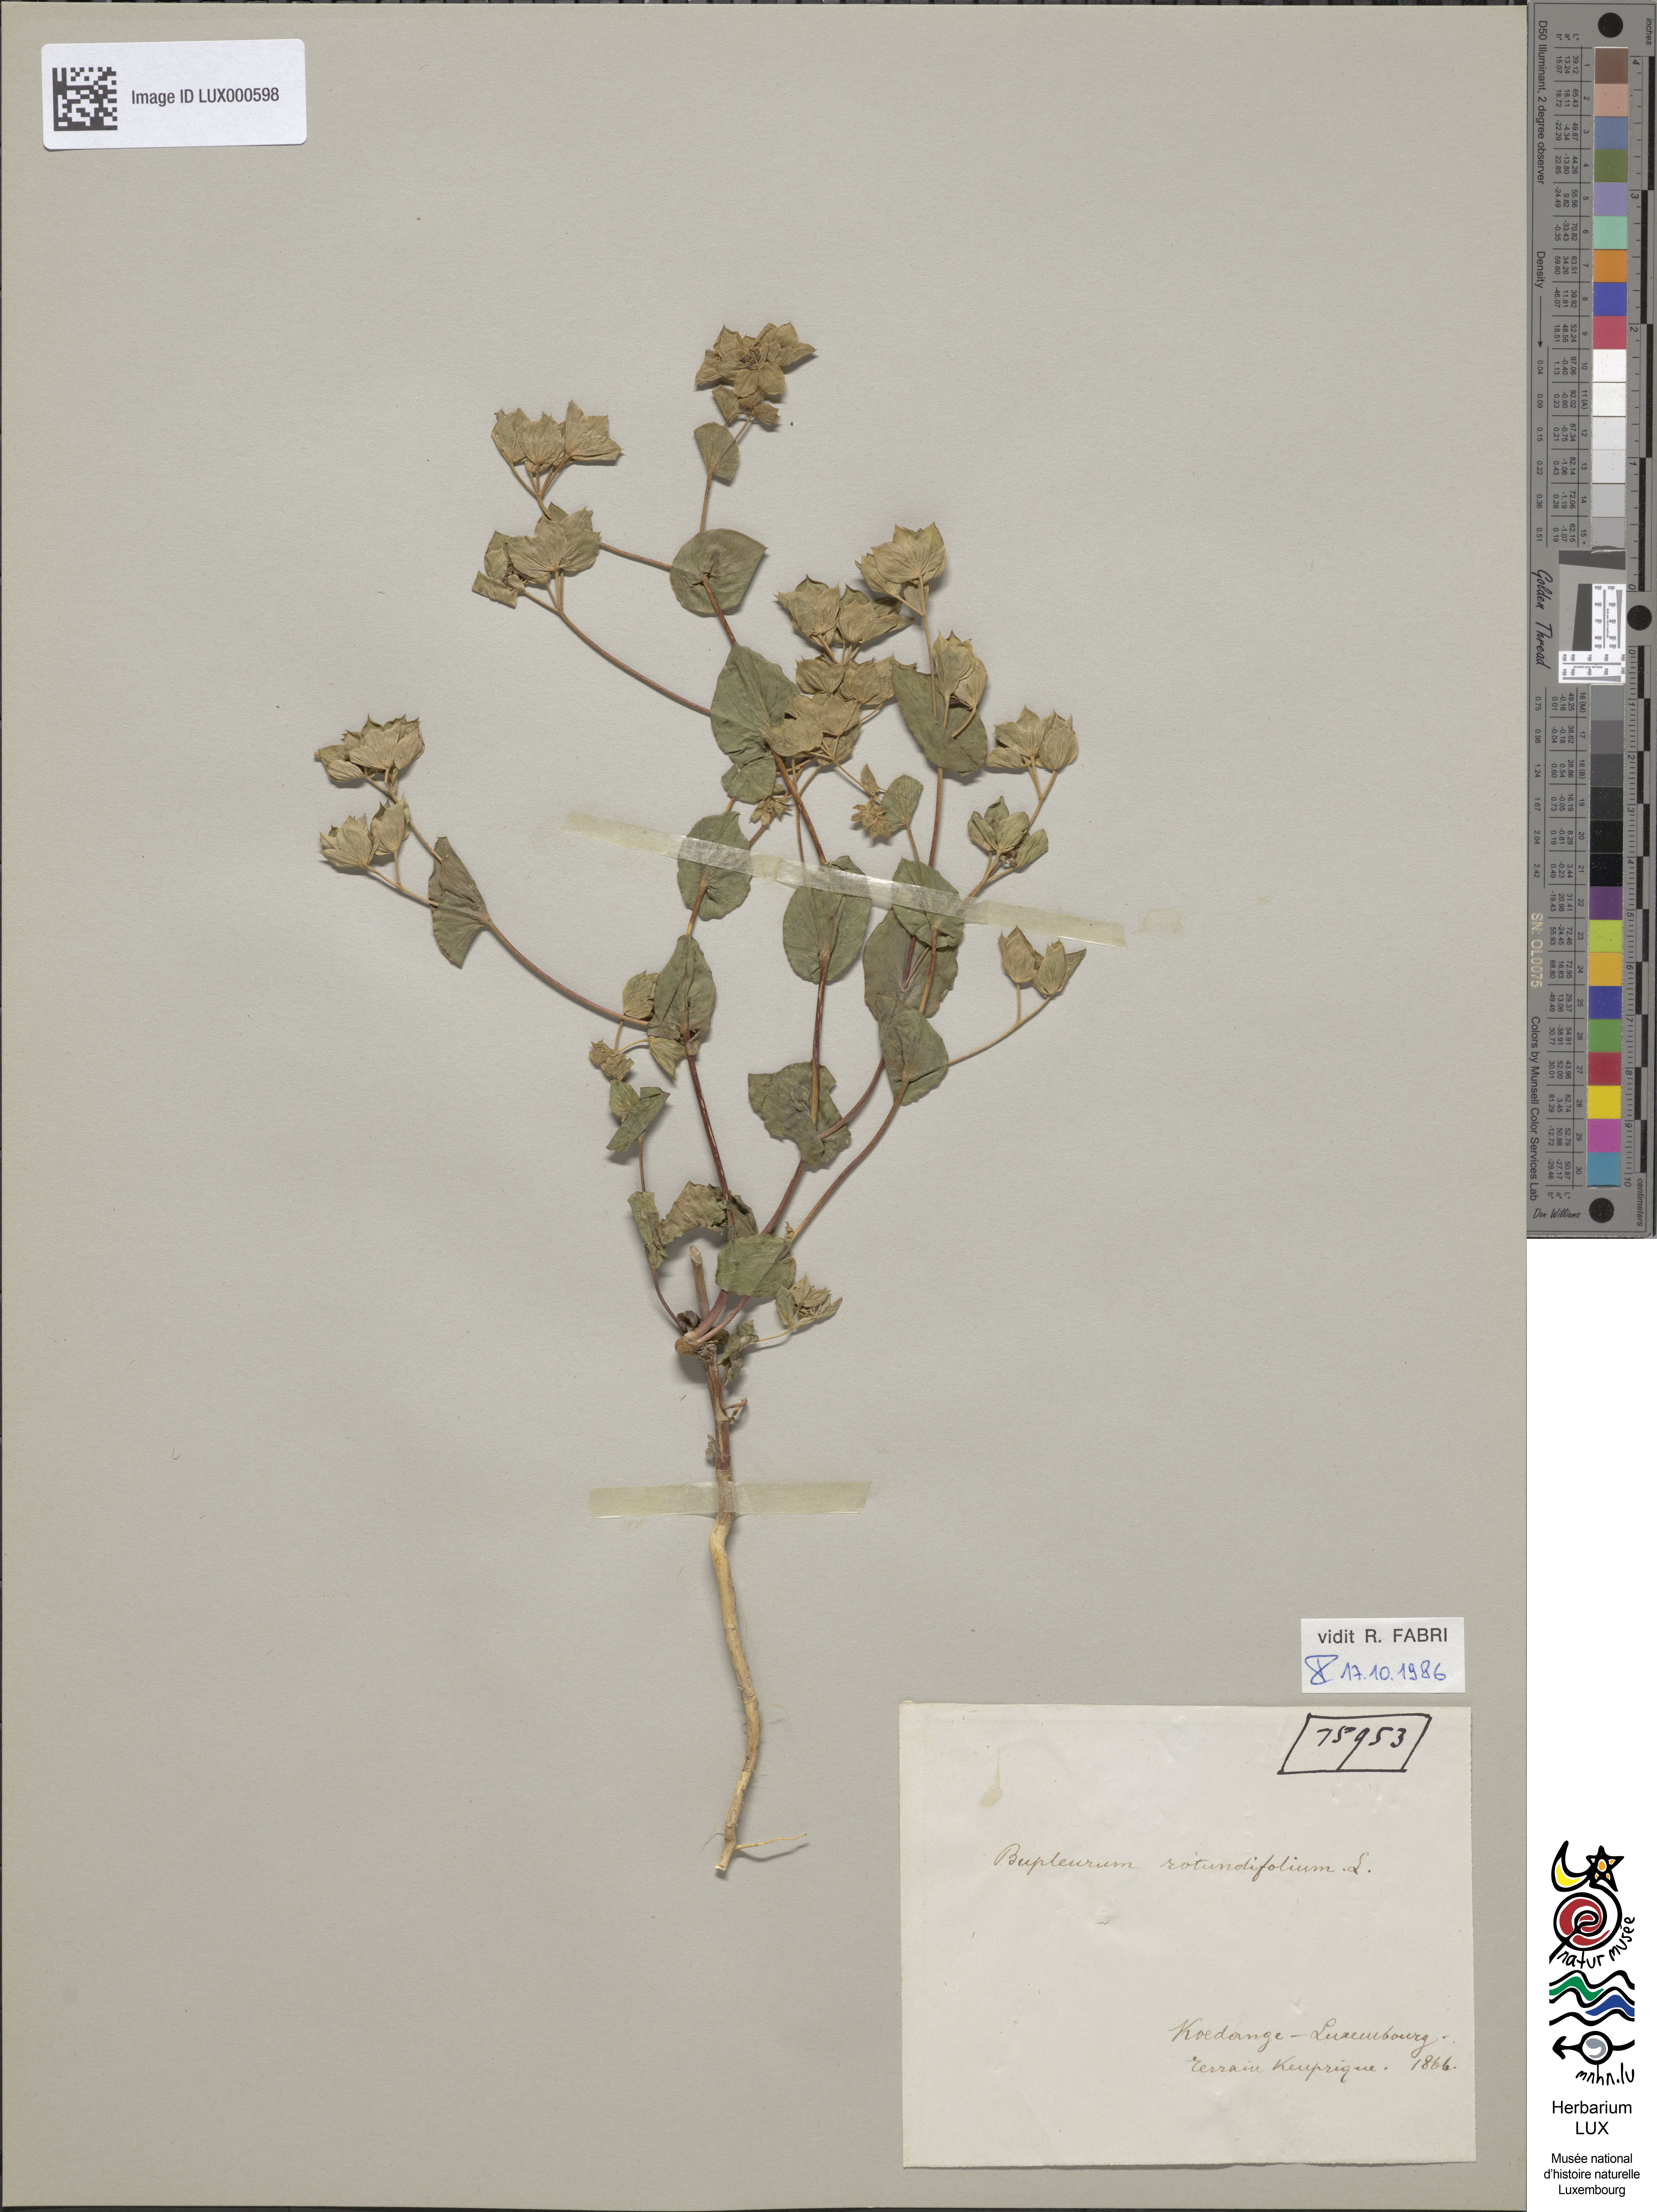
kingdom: Plantae
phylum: Tracheophyta
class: Magnoliopsida
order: Apiales
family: Apiaceae
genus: Bupleurum
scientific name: Bupleurum rotundifolium
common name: Thorow-wax
